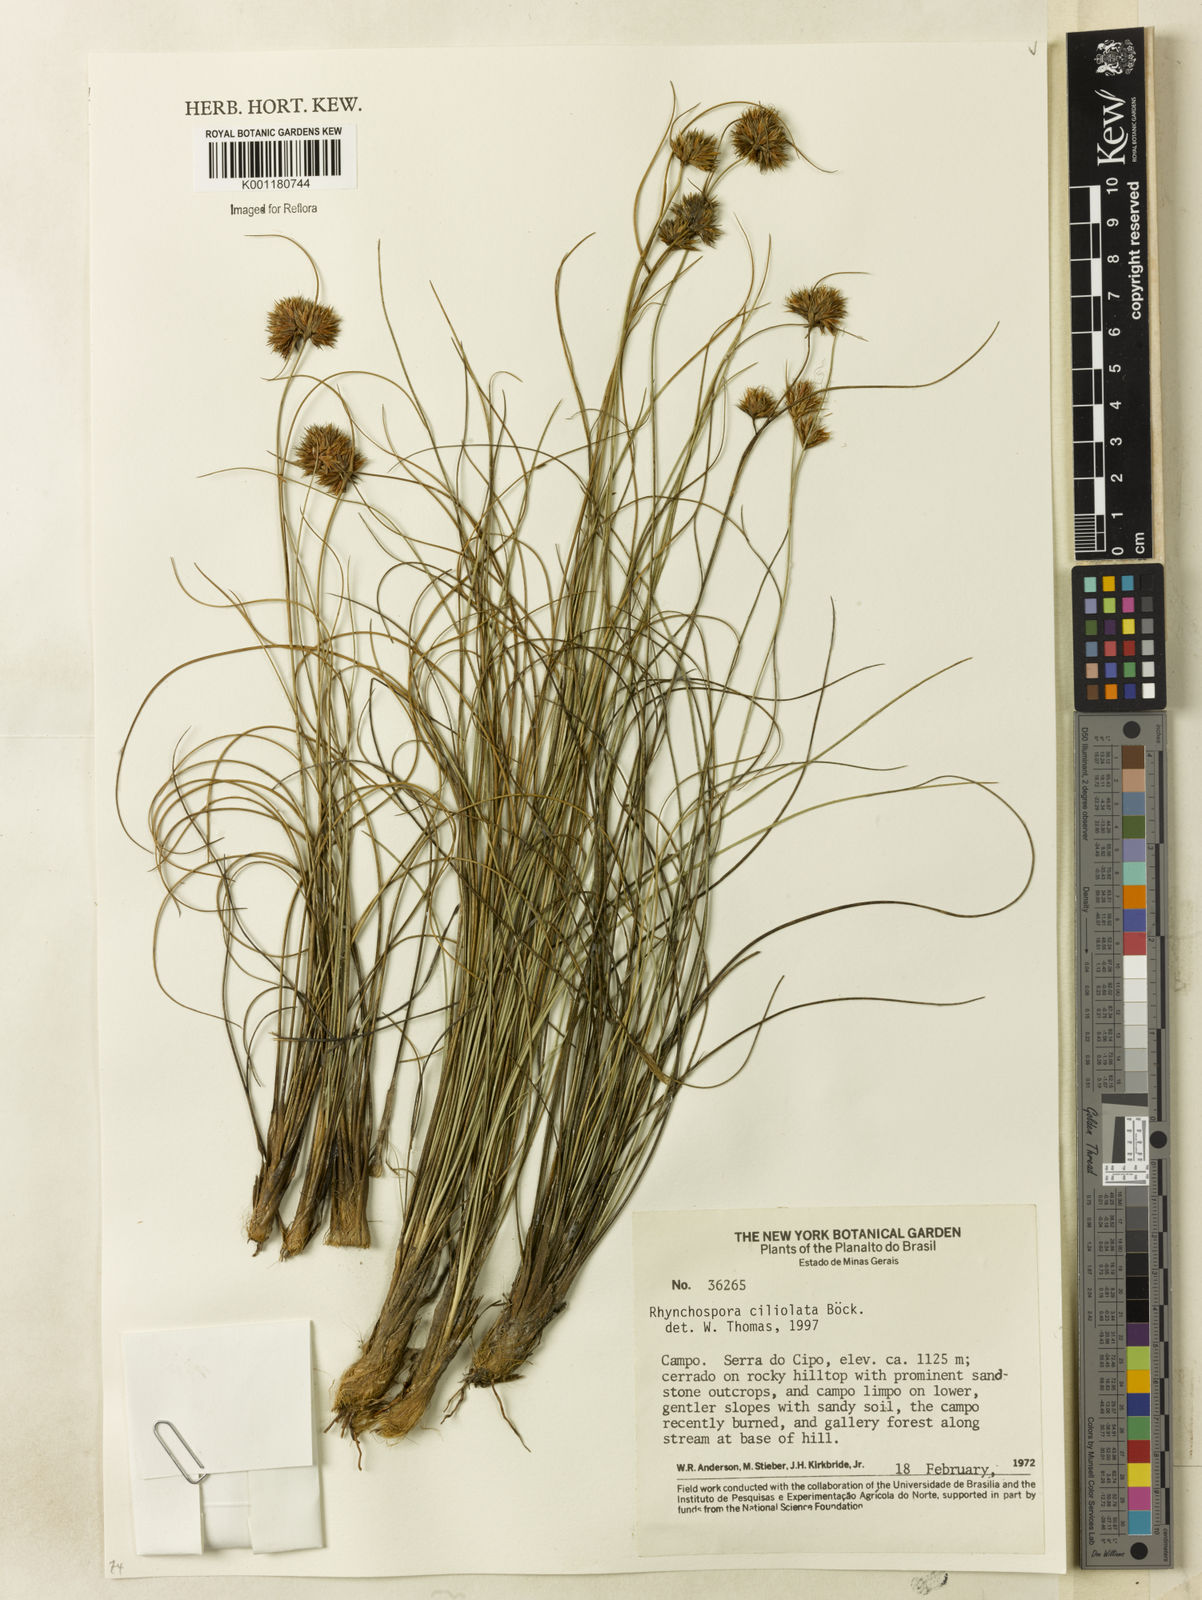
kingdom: Plantae
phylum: Tracheophyta
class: Liliopsida
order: Poales
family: Cyperaceae
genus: Rhynchospora
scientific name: Rhynchospora ciliolata
